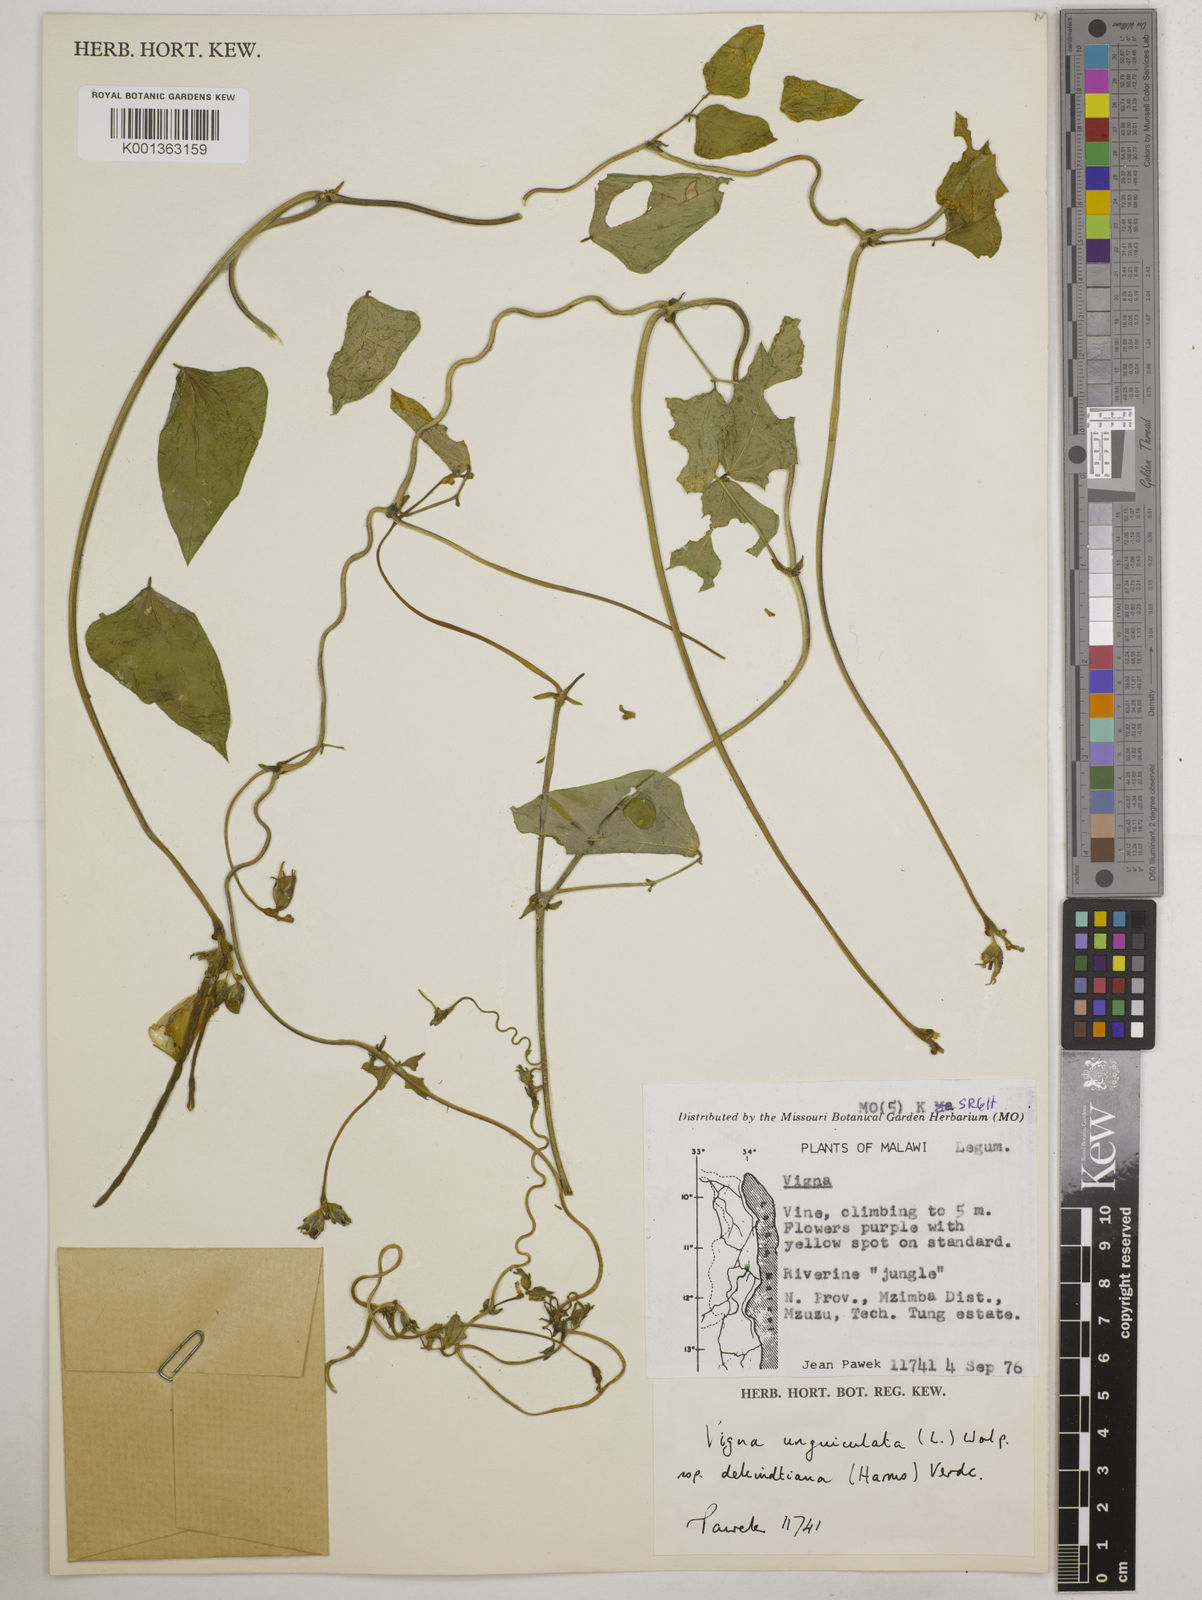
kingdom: Plantae
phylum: Tracheophyta
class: Magnoliopsida
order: Fabales
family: Fabaceae
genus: Vigna
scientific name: Vigna unguiculata
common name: Cowpea
